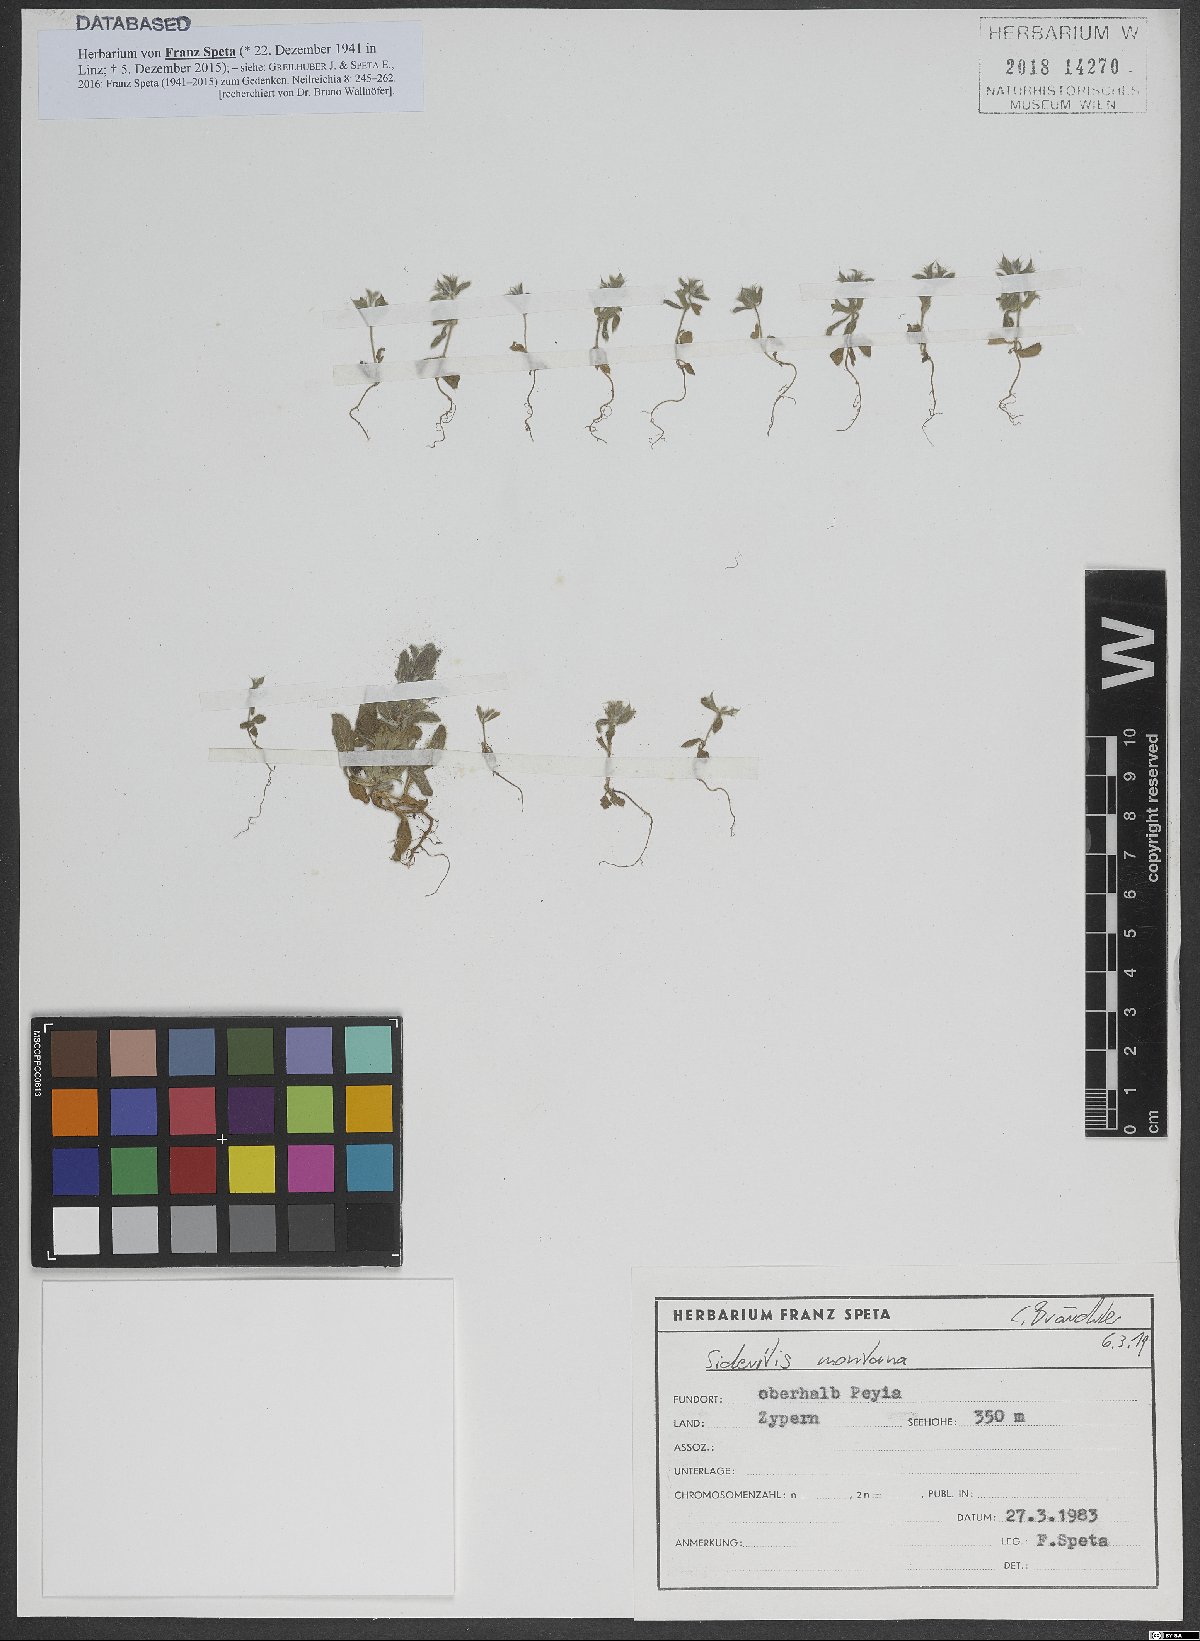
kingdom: Plantae
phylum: Tracheophyta
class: Magnoliopsida
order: Lamiales
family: Lamiaceae
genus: Sideritis
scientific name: Sideritis montana
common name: Mountain ironwort
